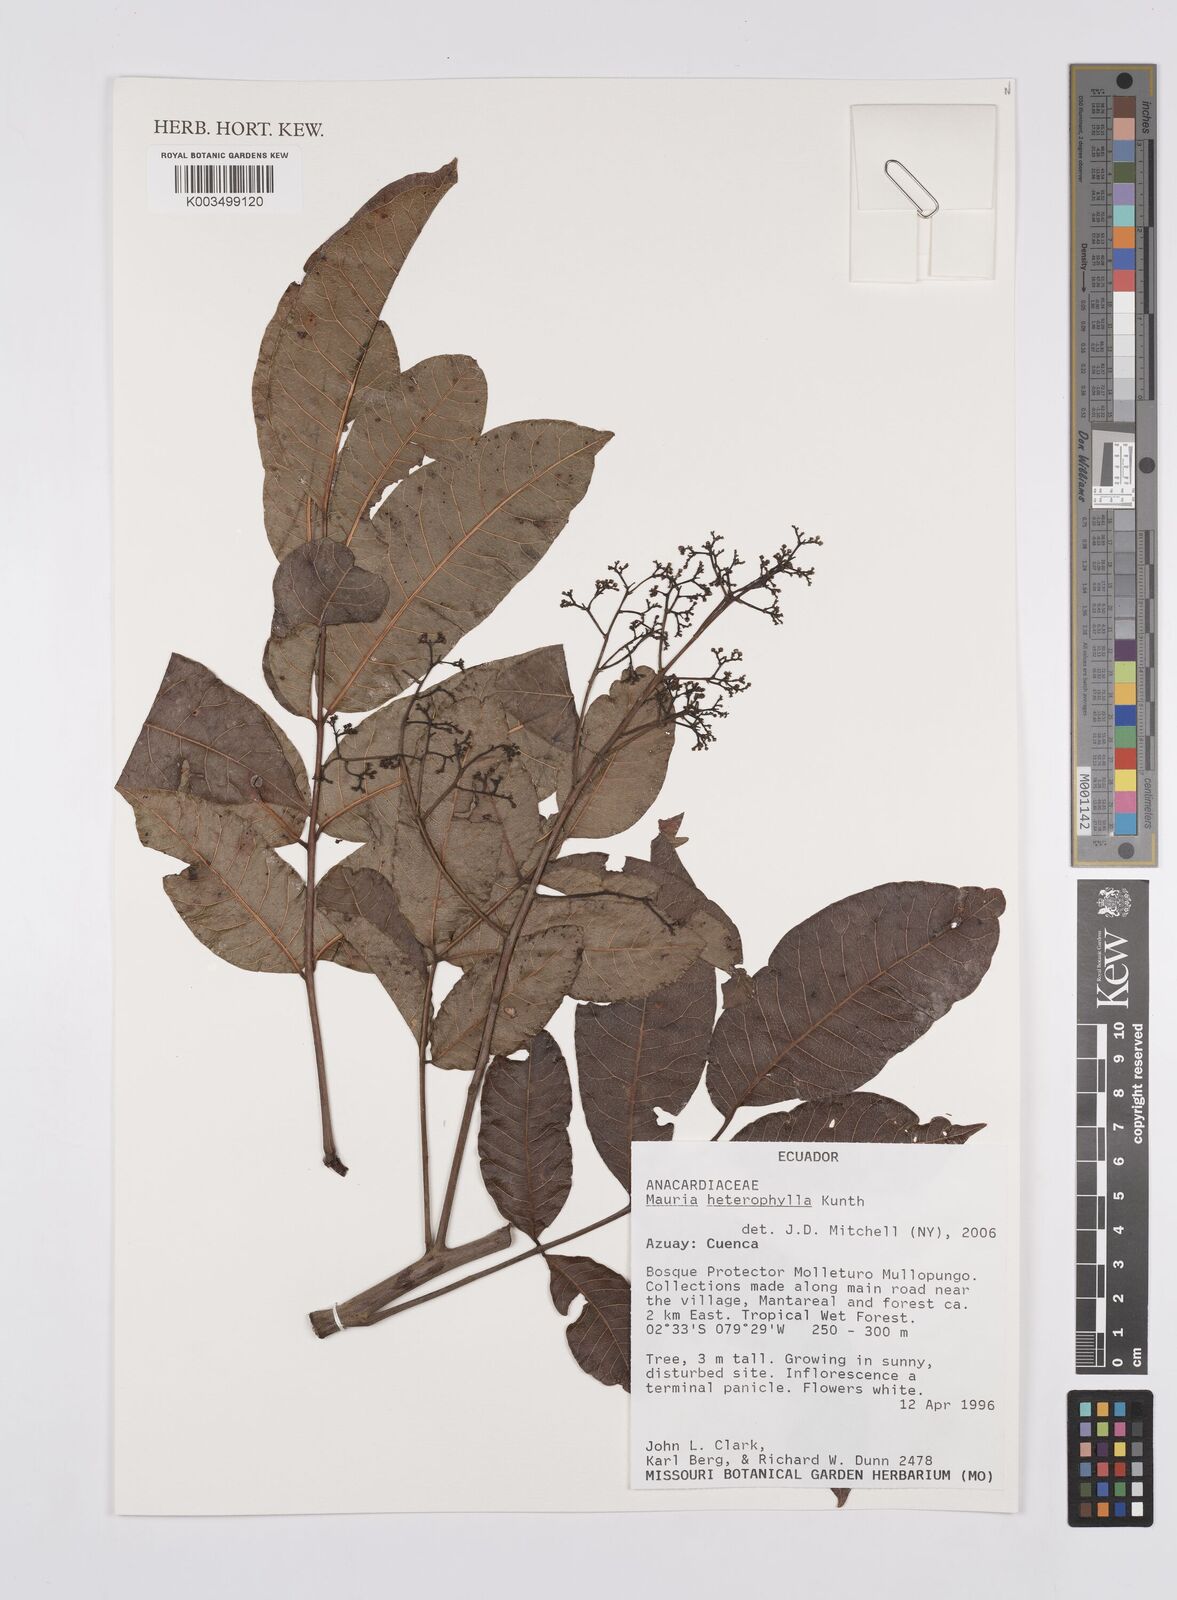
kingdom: Plantae
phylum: Tracheophyta
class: Magnoliopsida
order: Sapindales
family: Anacardiaceae
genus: Mauria
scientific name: Mauria heterophylla
